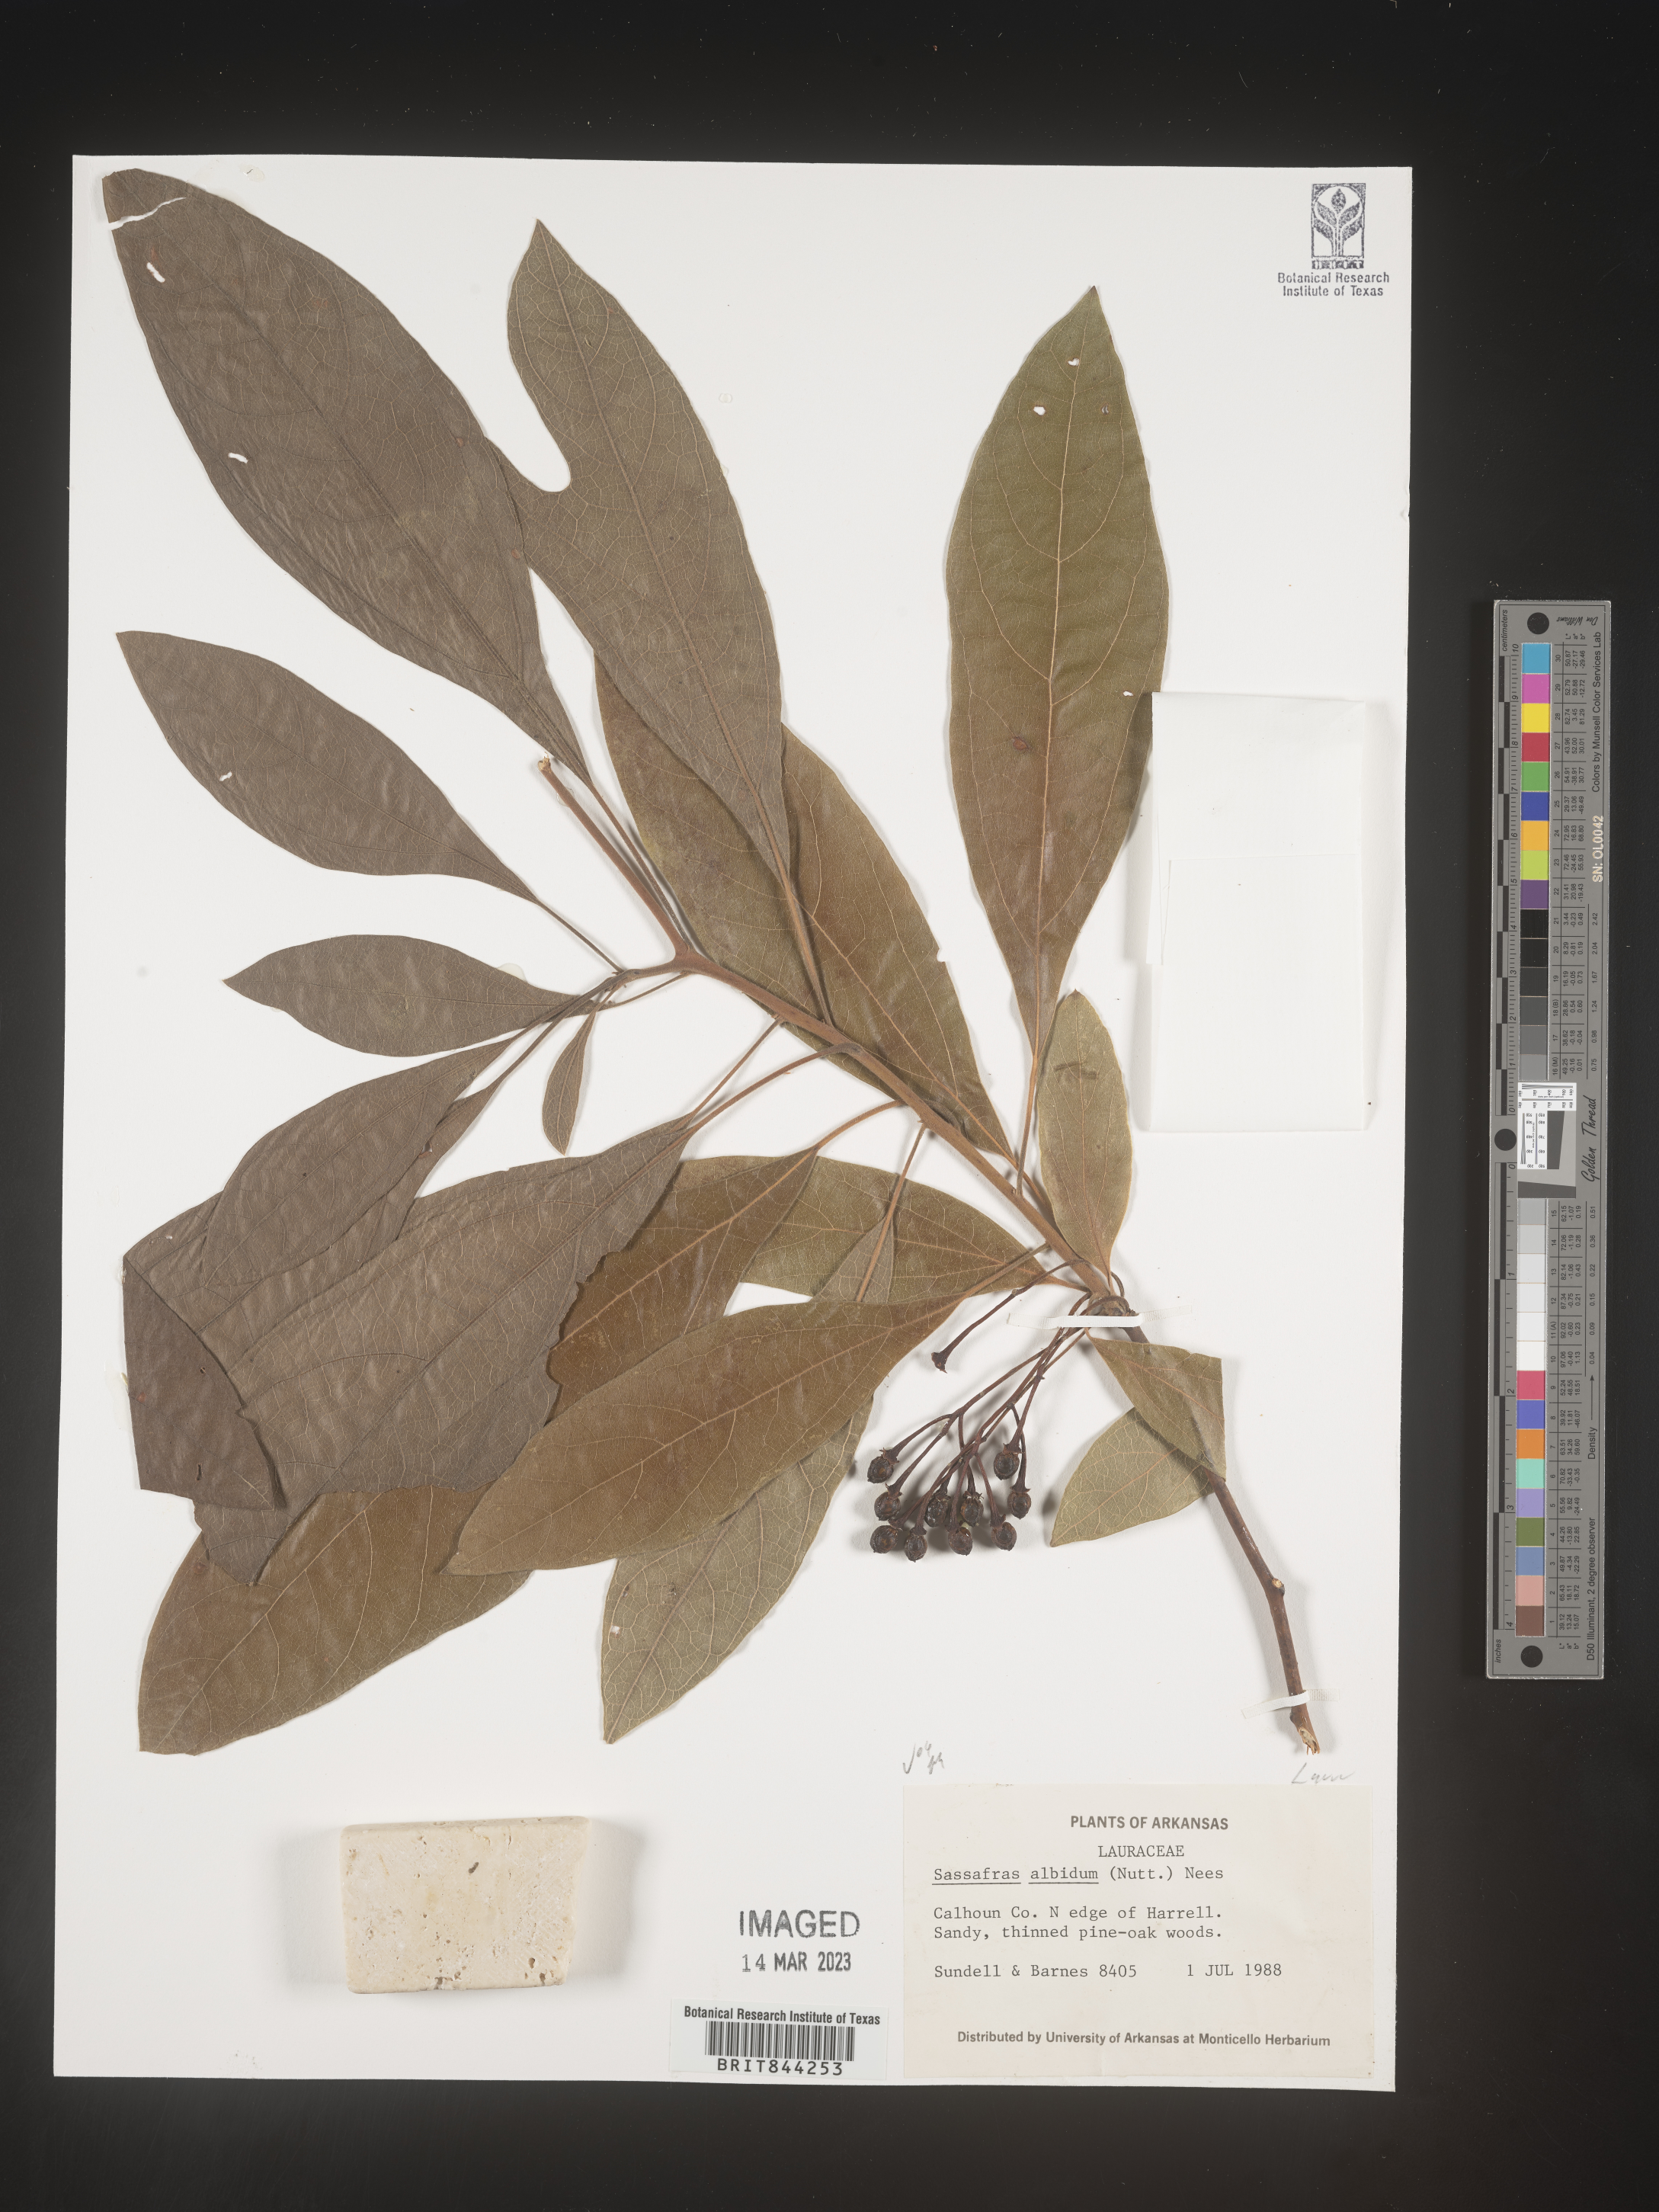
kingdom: Plantae
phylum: Tracheophyta
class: Magnoliopsida
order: Laurales
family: Lauraceae
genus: Sassafras
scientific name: Sassafras albidum
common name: Sassafras
